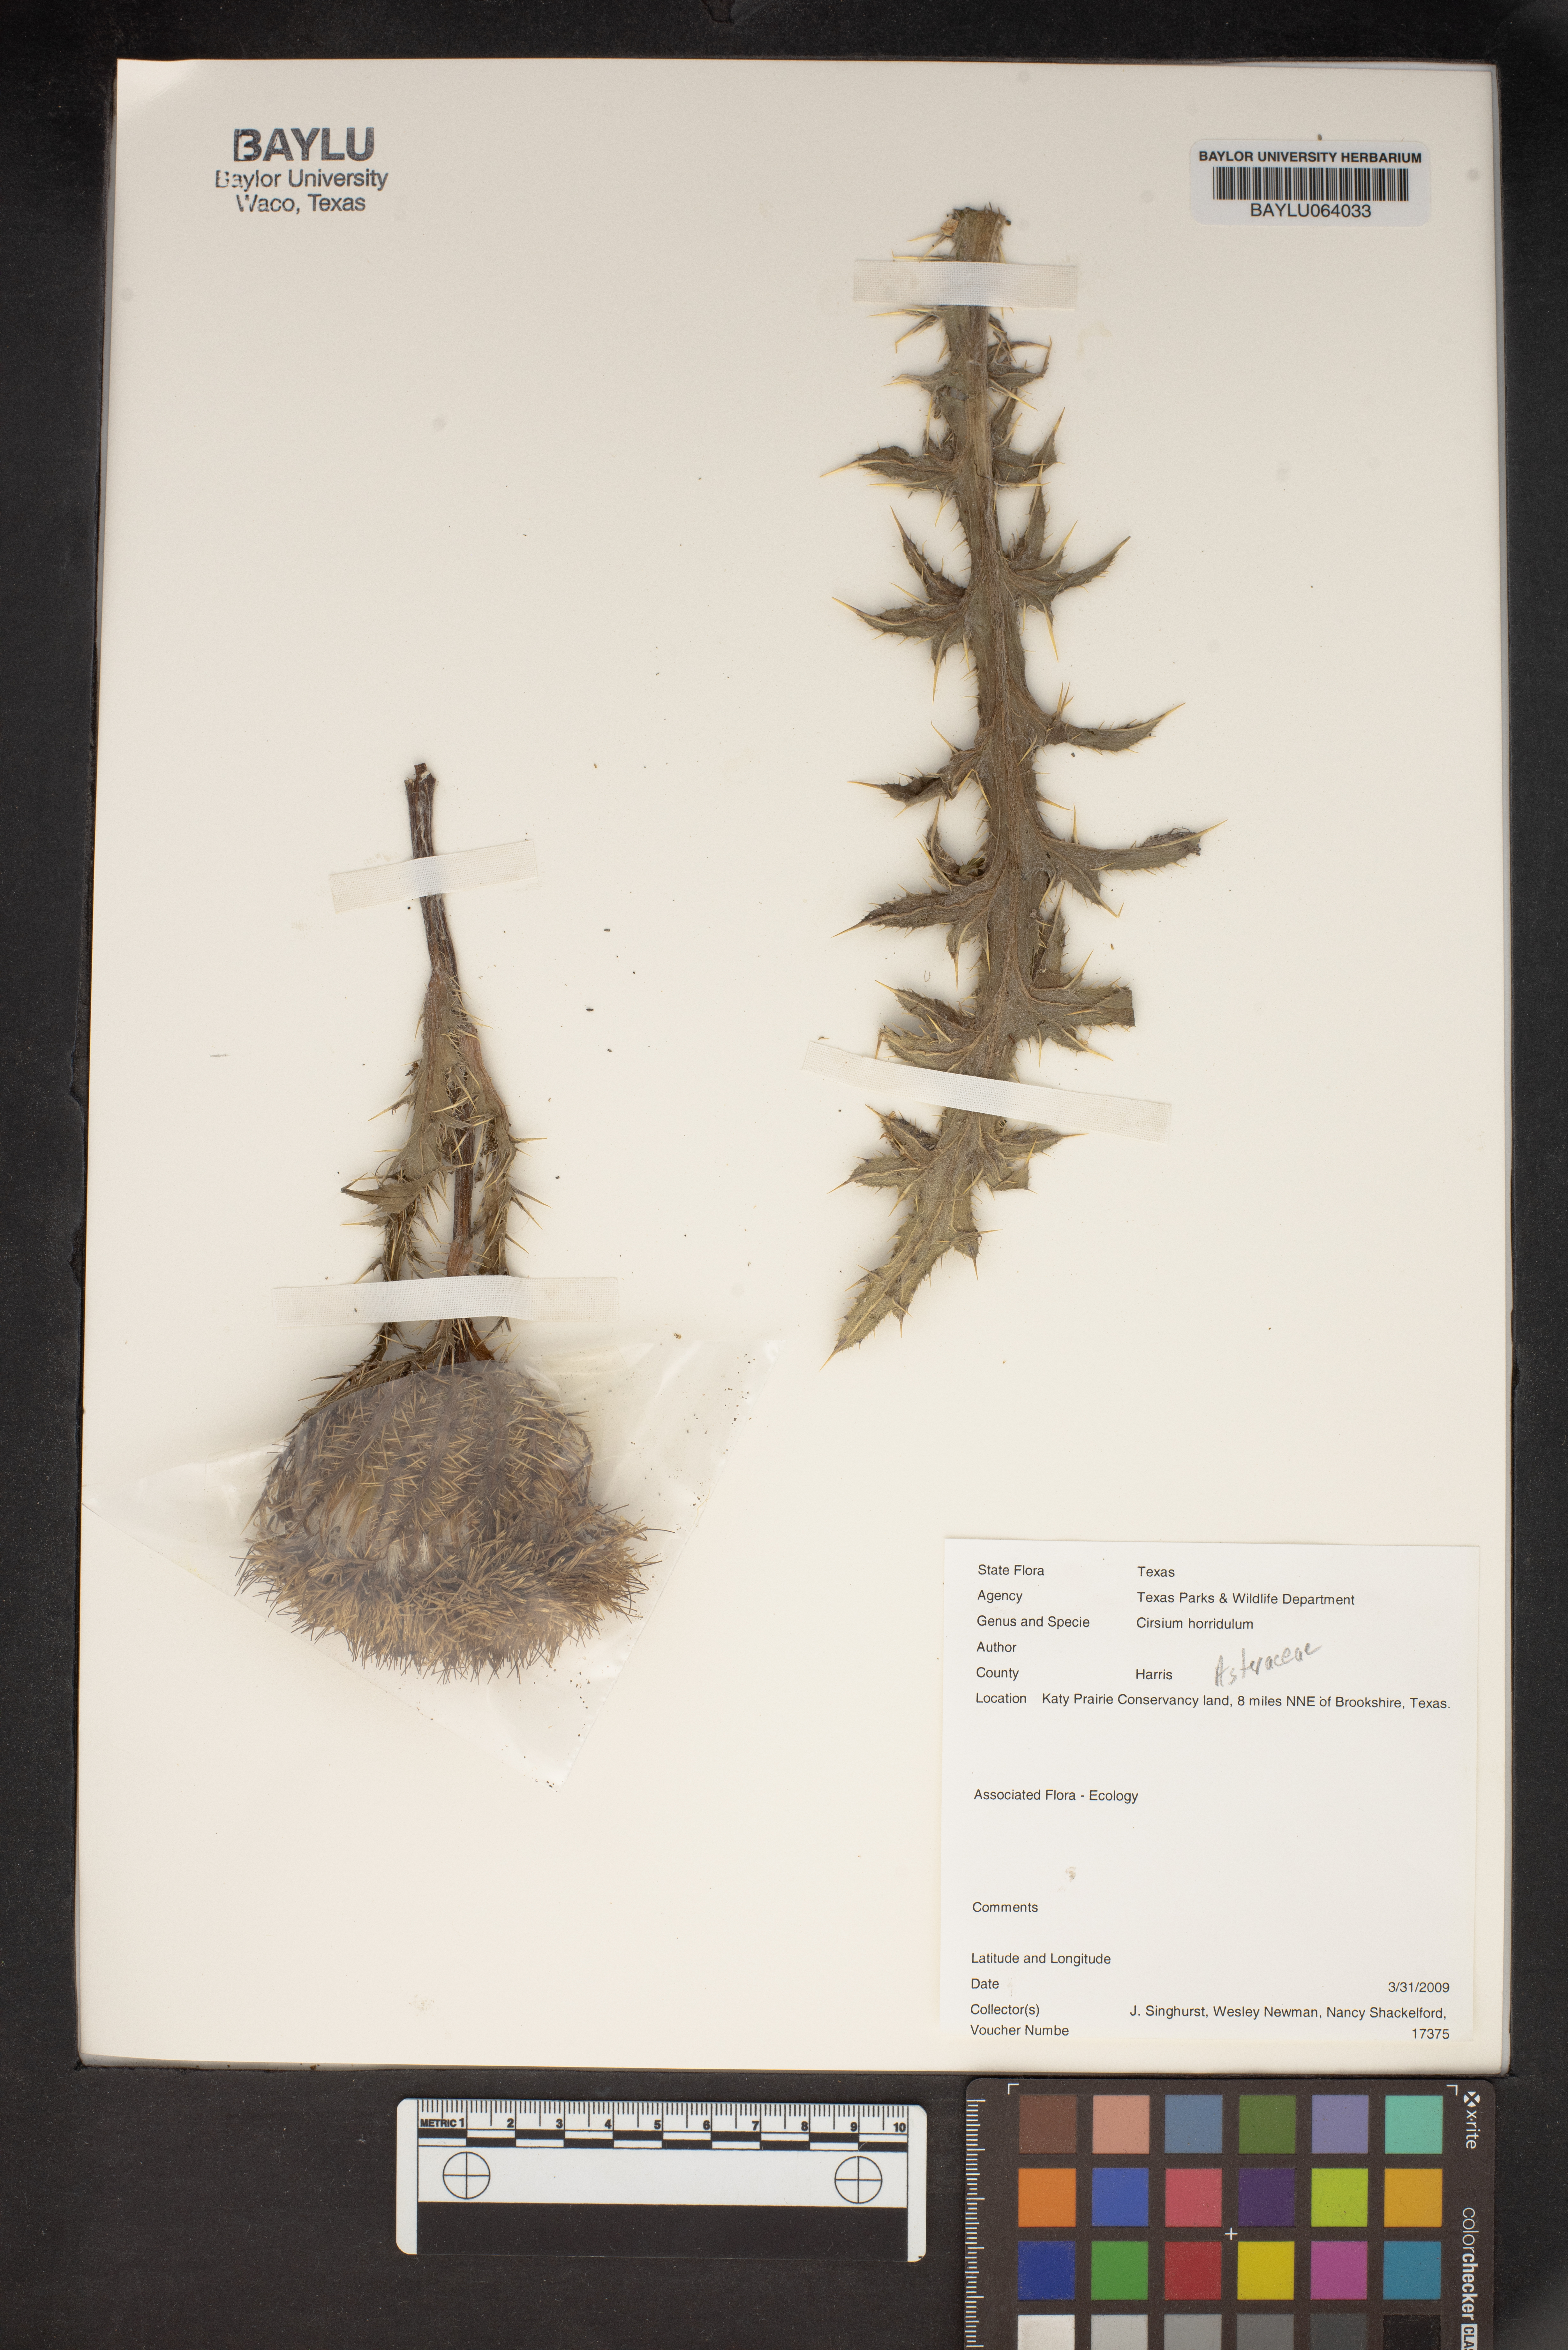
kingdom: Plantae
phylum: Tracheophyta
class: Magnoliopsida
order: Asterales
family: Asteraceae
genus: Cirsium
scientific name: Cirsium horridulum
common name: Bristly thistle
